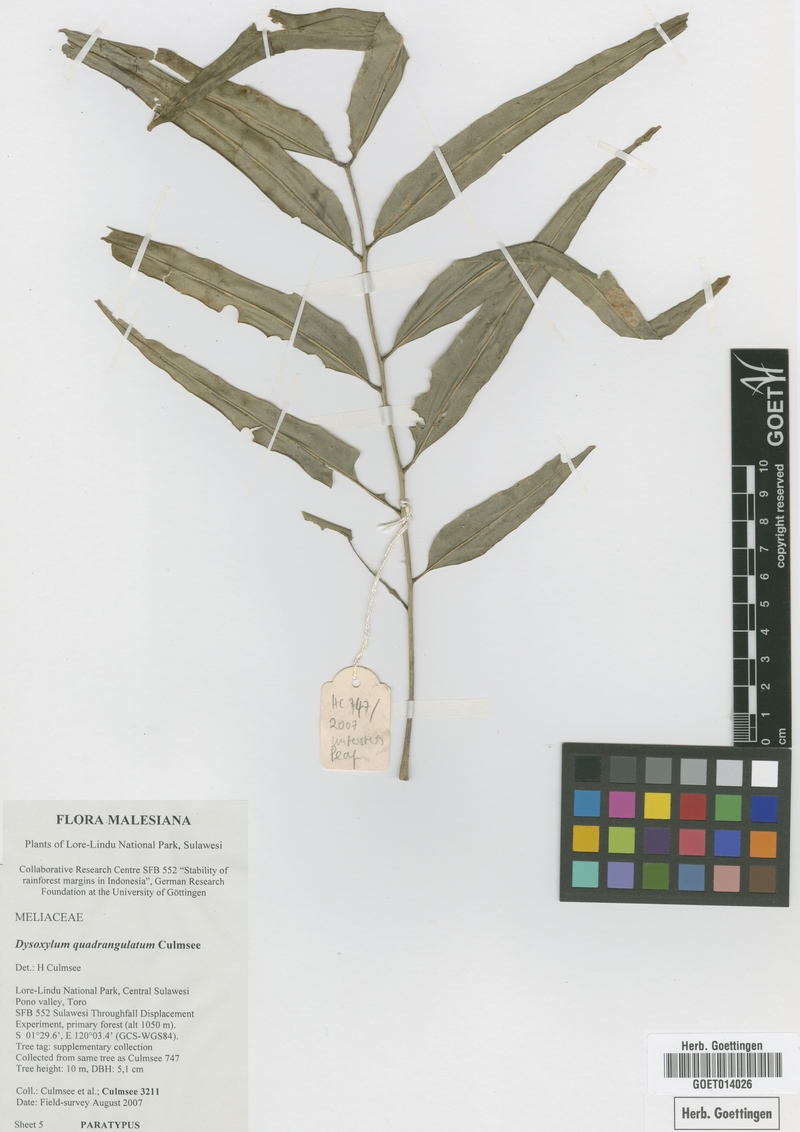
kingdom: Plantae
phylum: Tracheophyta
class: Magnoliopsida
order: Sapindales
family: Meliaceae
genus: Dysoxylum
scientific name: Dysoxylum quadrangulatum
